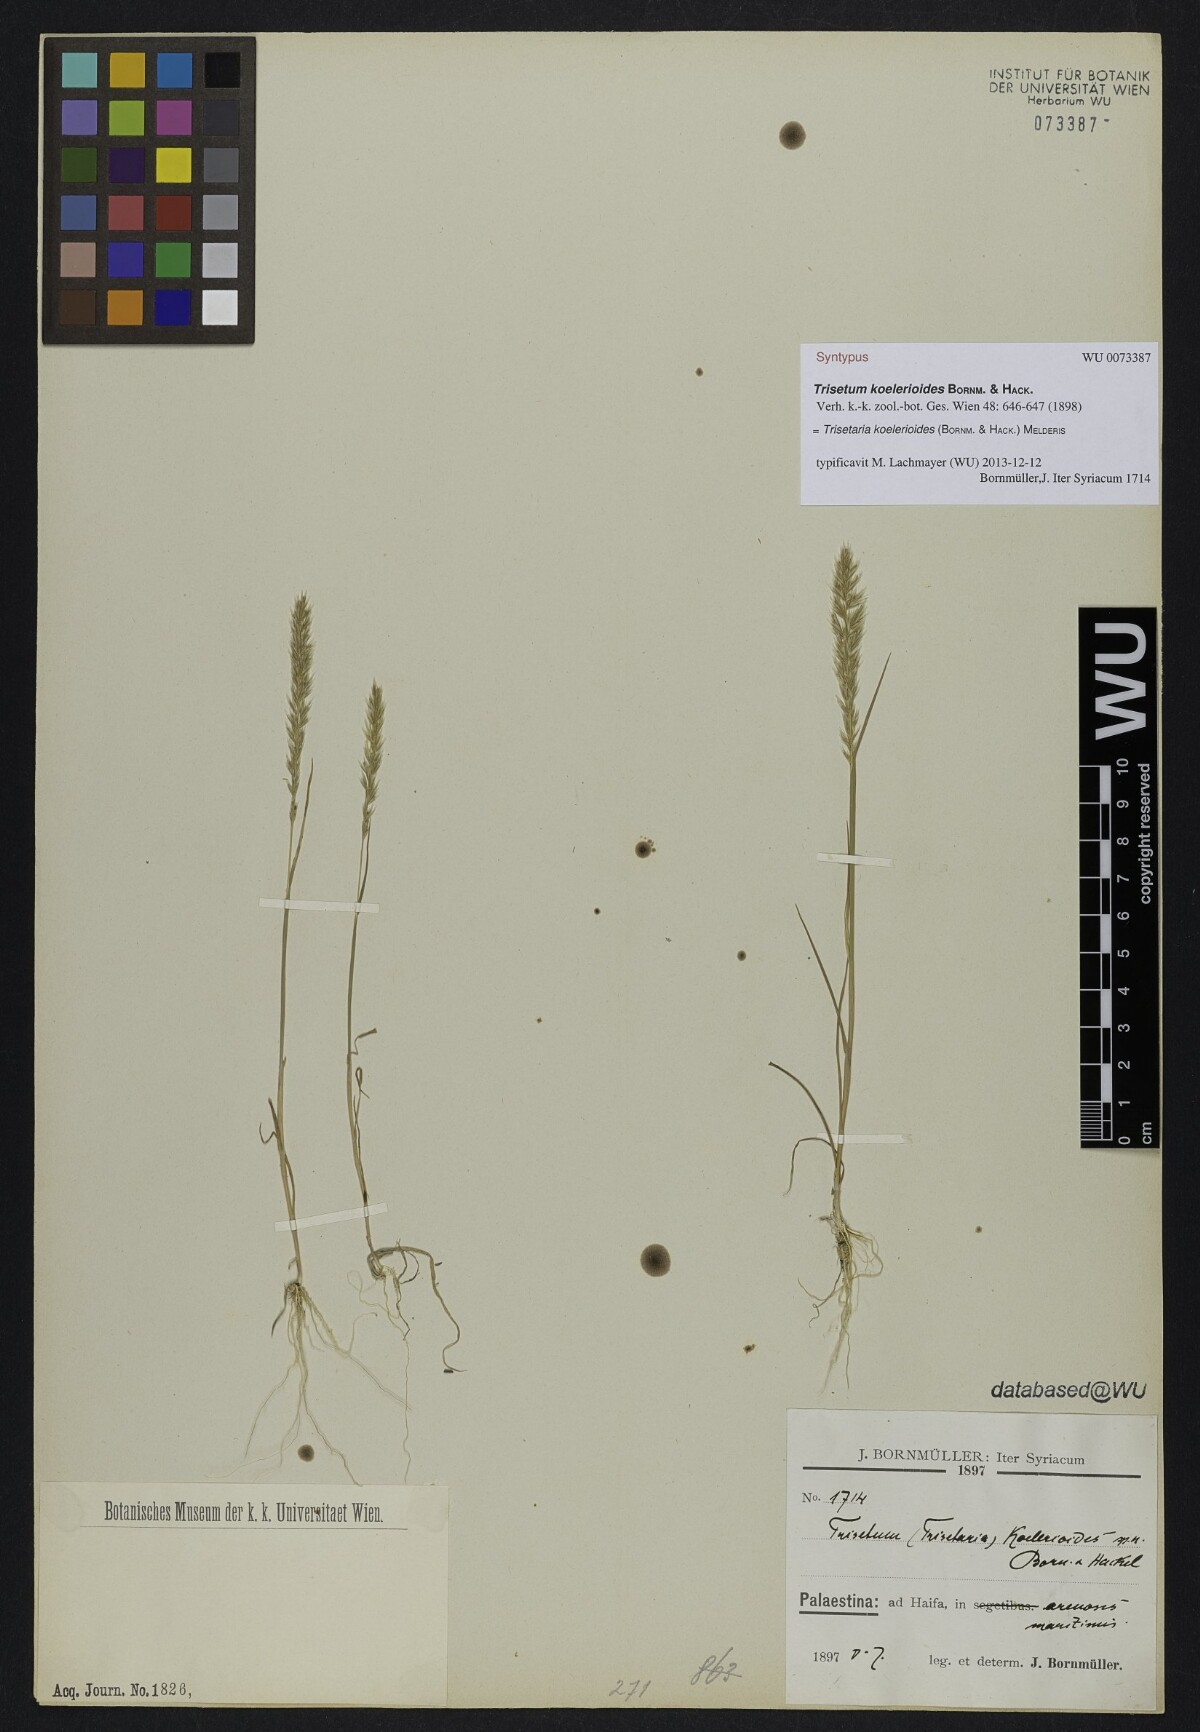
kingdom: Plantae
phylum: Tracheophyta
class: Liliopsida
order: Poales
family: Poaceae
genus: Trisetaria
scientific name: Trisetaria koelerioides
